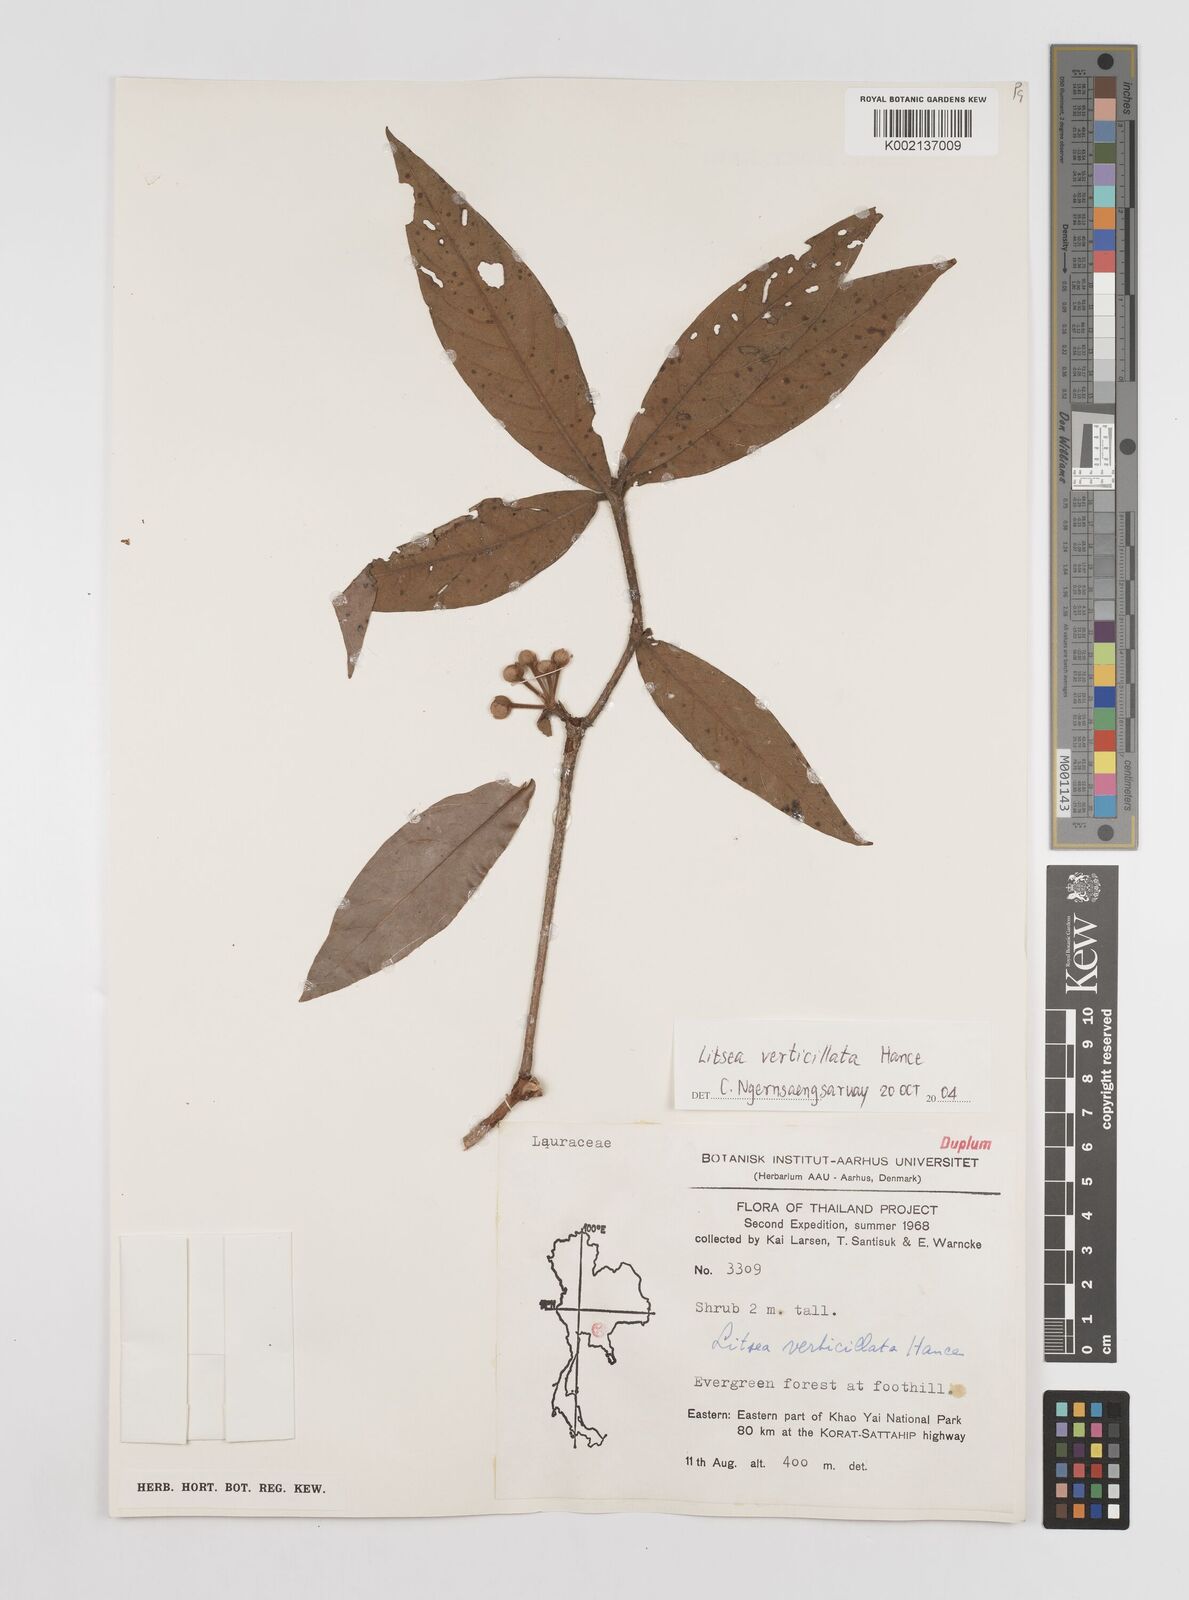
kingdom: Plantae
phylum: Tracheophyta
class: Magnoliopsida
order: Laurales
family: Lauraceae
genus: Litsea
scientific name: Litsea verticillata
